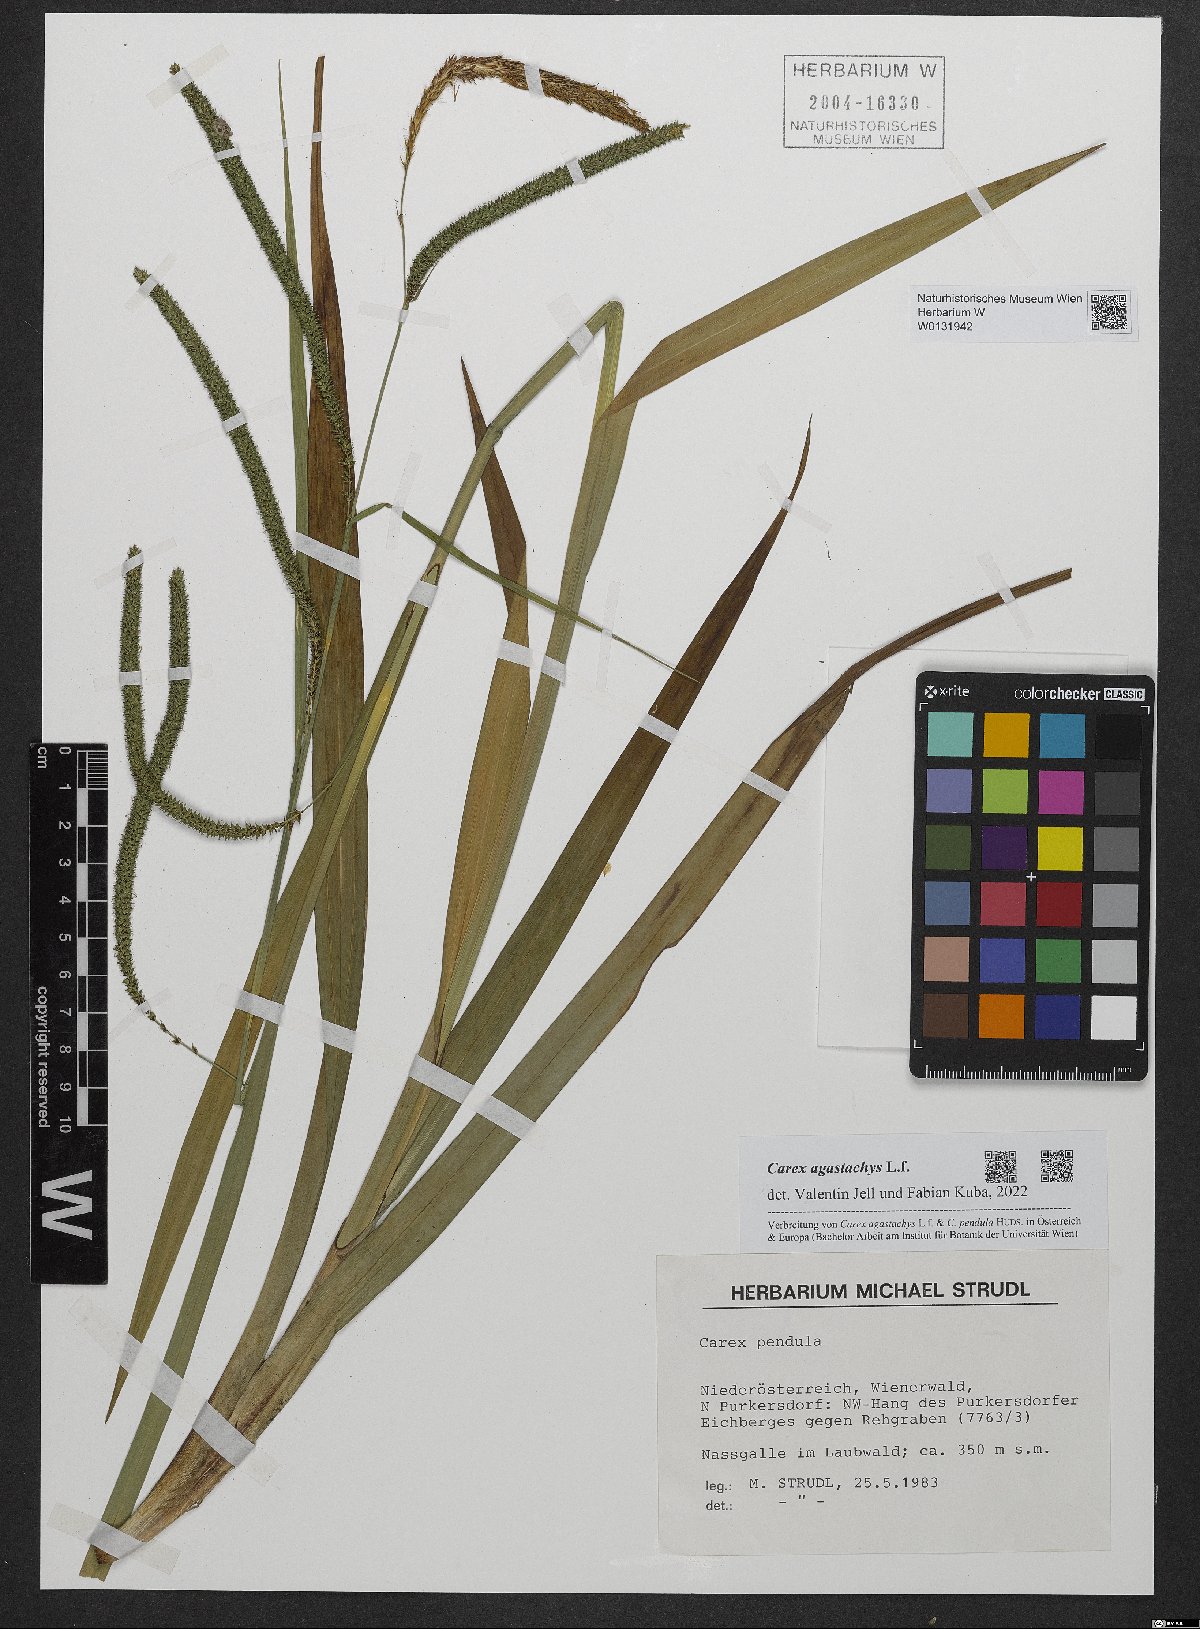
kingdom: Plantae
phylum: Tracheophyta
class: Liliopsida
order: Poales
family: Cyperaceae
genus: Carex
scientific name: Carex agastachys
